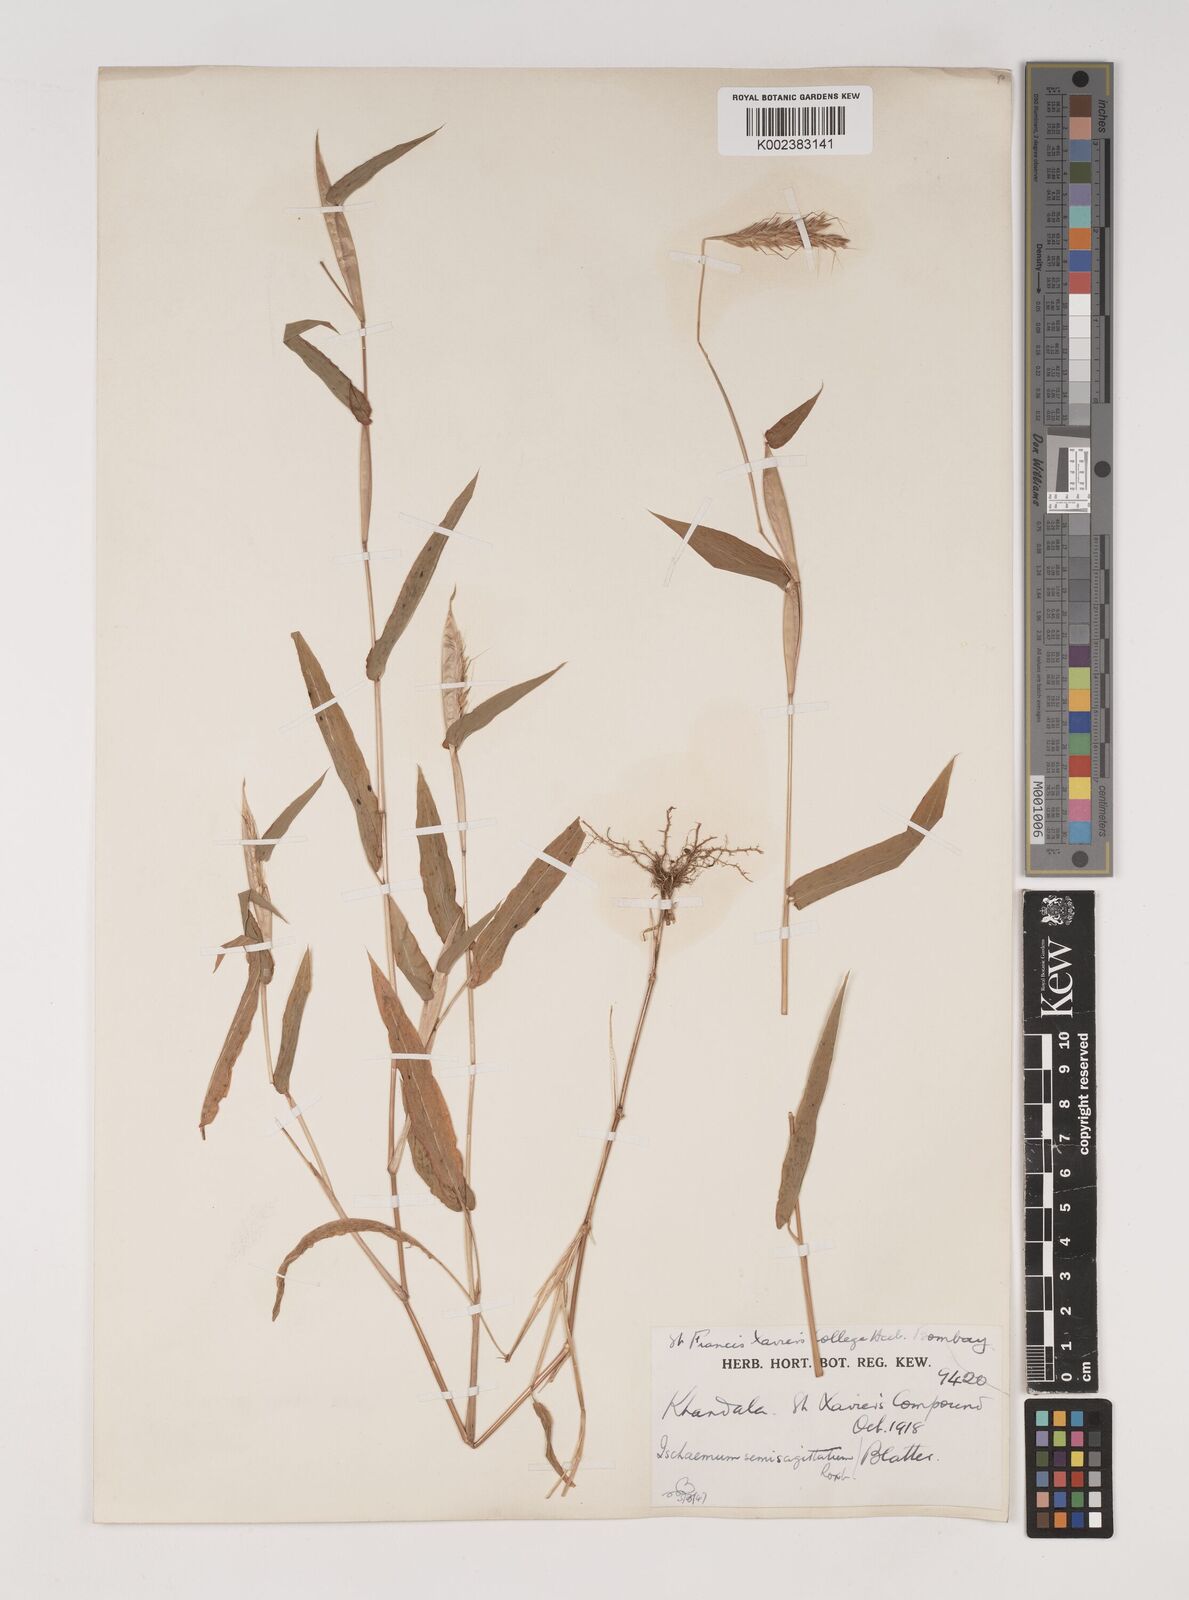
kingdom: Plantae
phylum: Tracheophyta
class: Liliopsida
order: Poales
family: Poaceae
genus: Ischaemum
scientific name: Ischaemum semisagittatum
